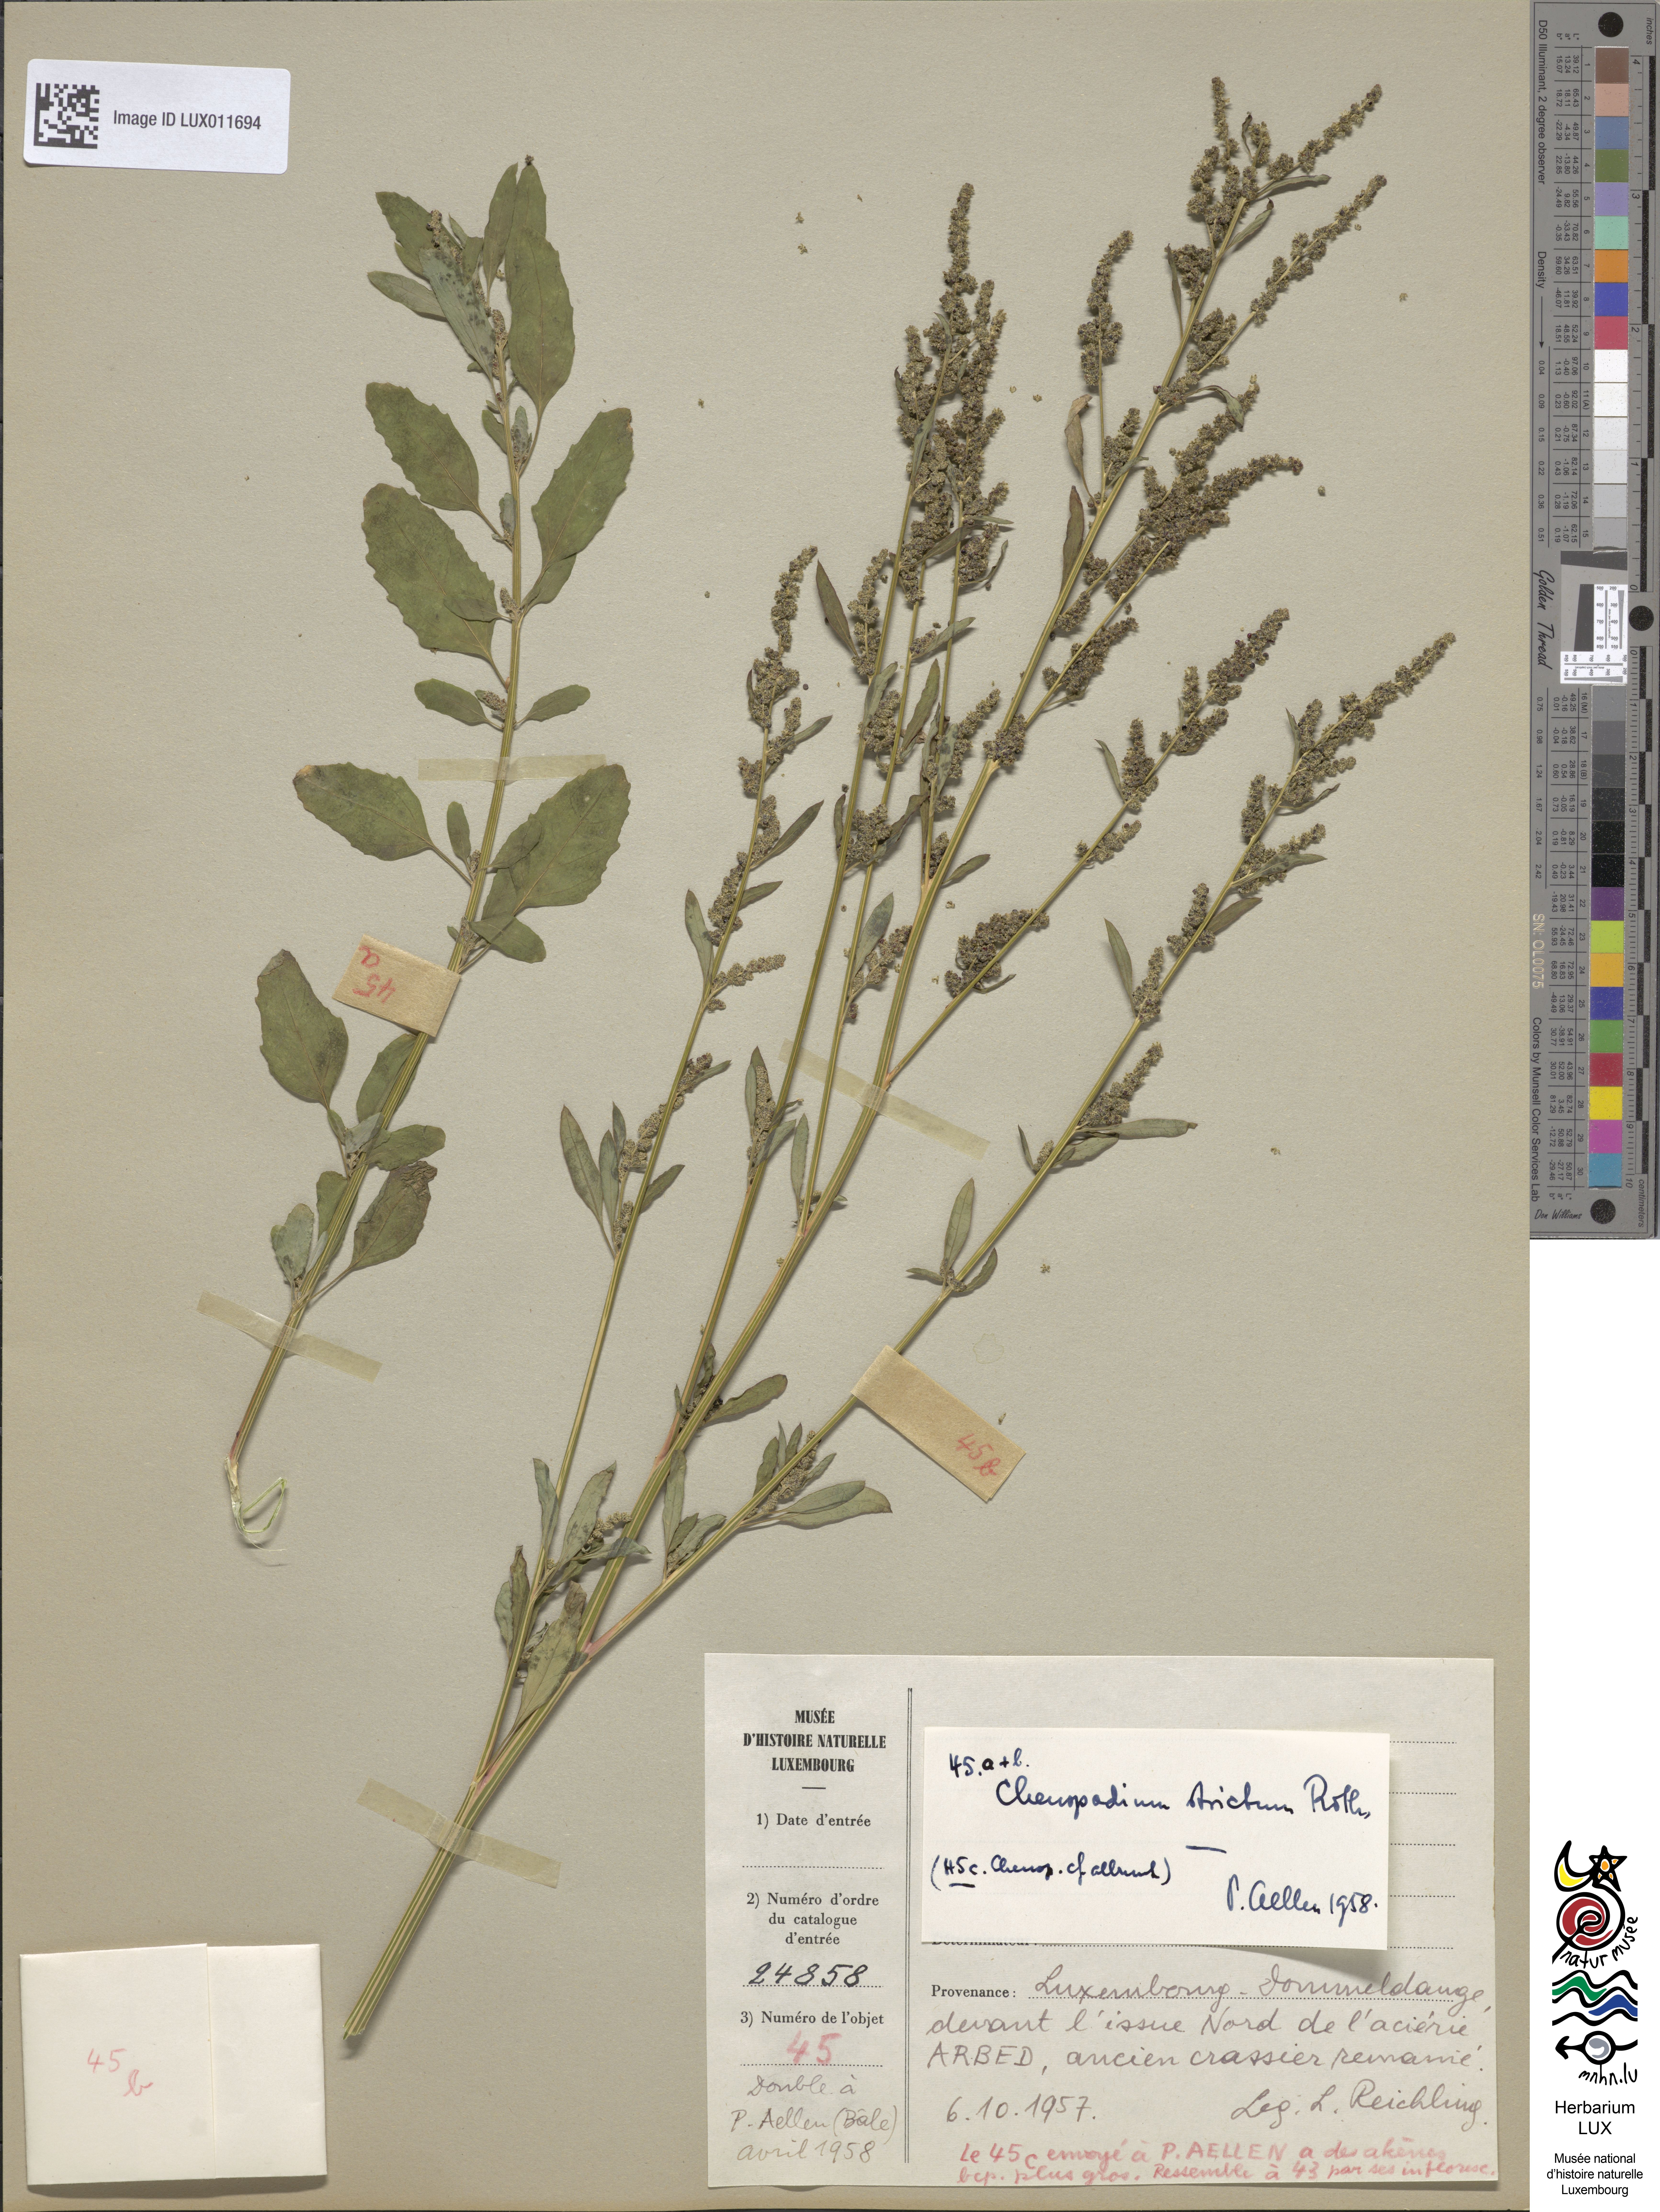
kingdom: Plantae
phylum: Tracheophyta
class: Magnoliopsida
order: Caryophyllales
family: Amaranthaceae
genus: Chenopodium
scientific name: Chenopodium album
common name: Fat-hen
